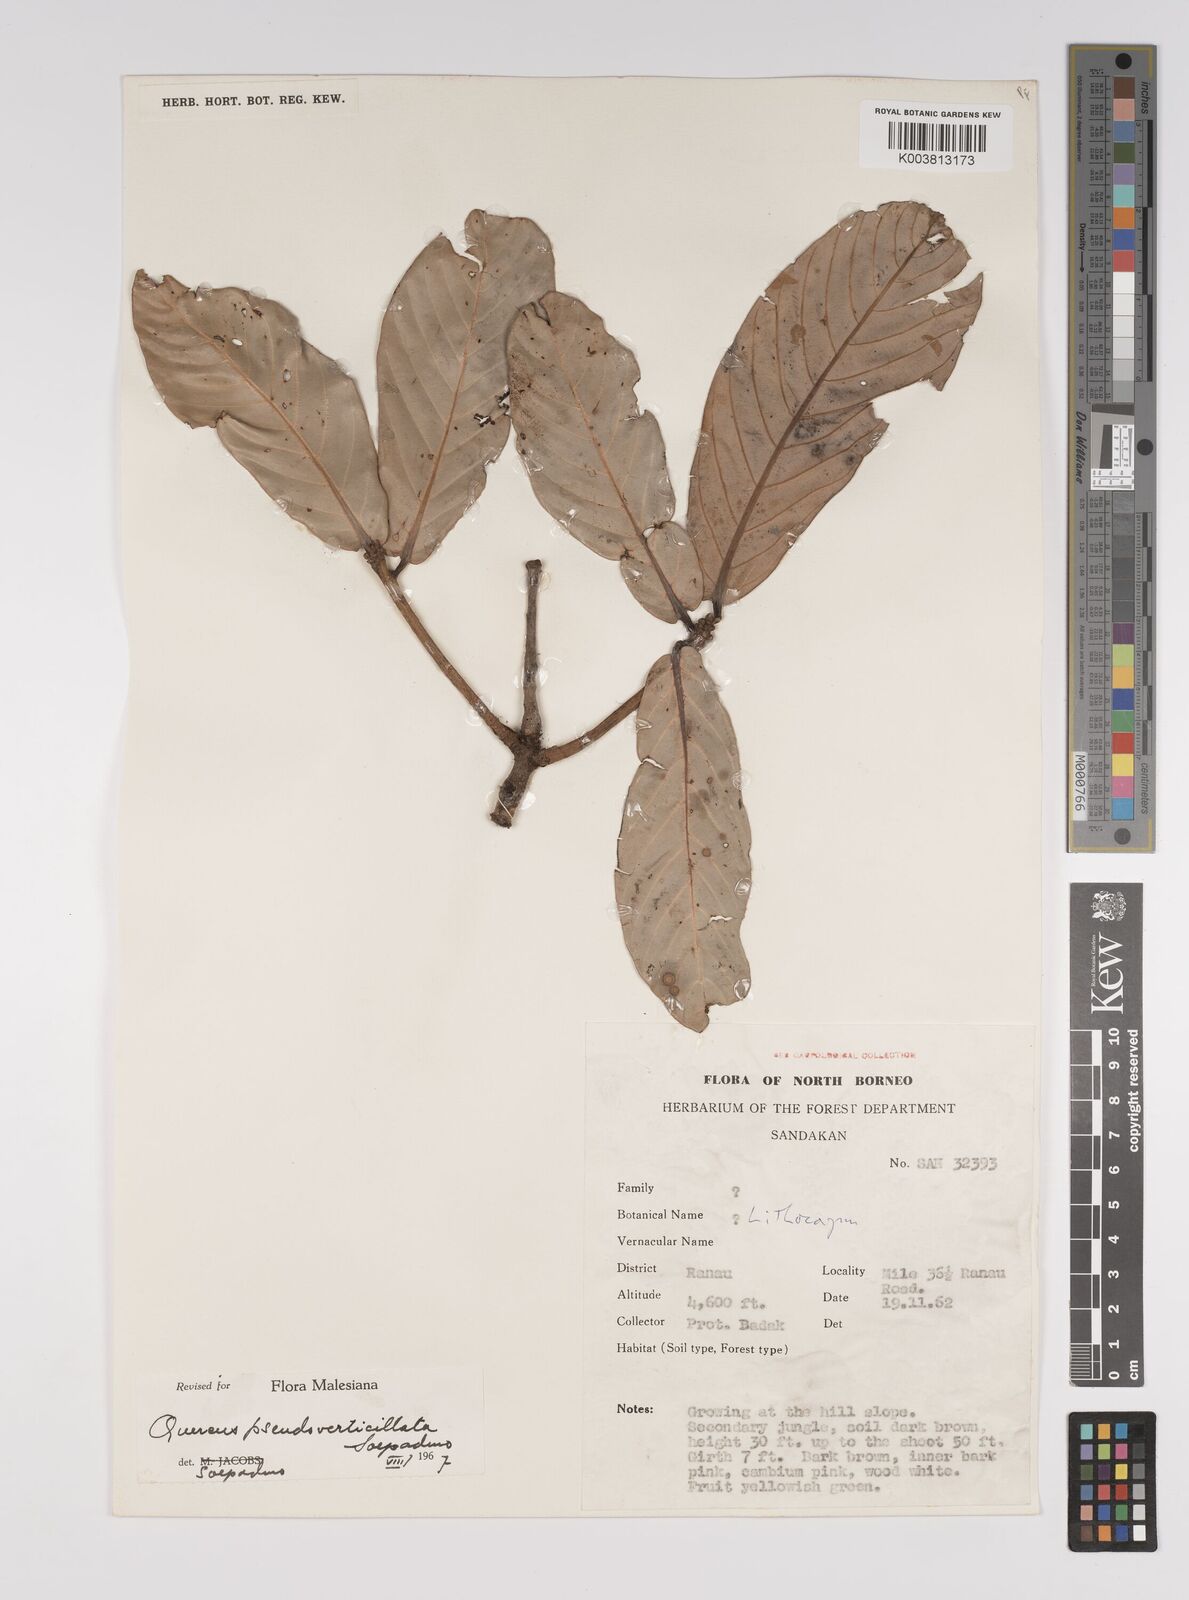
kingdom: Plantae
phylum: Tracheophyta
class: Magnoliopsida
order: Fagales
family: Fagaceae
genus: Quercus
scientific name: Quercus pseudoverticillata
